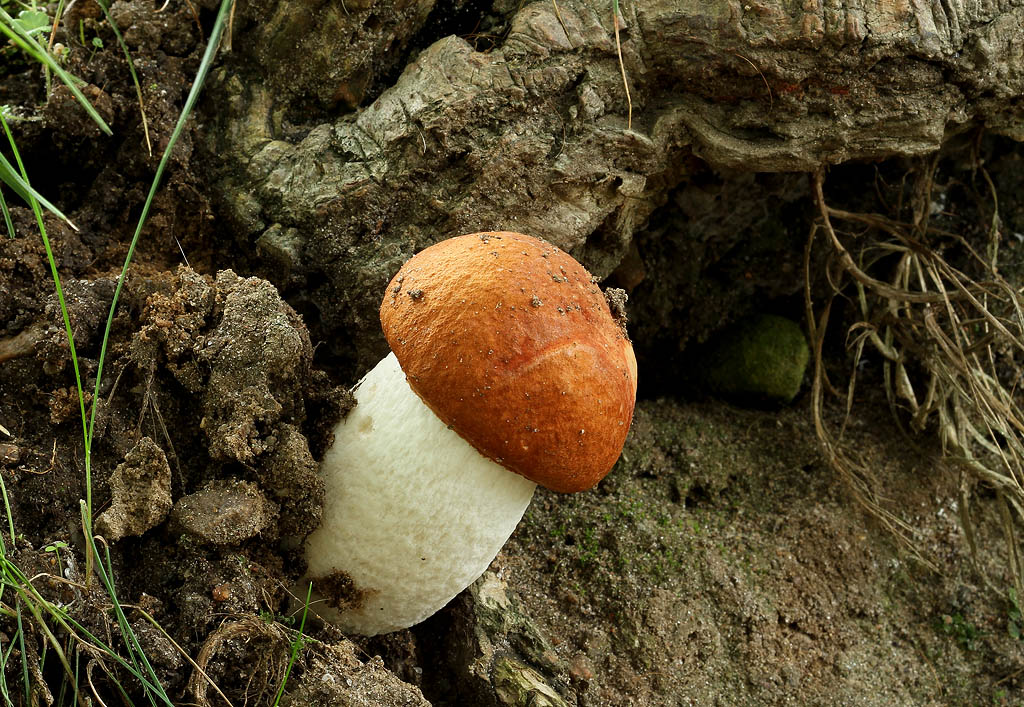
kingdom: Fungi
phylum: Basidiomycota
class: Agaricomycetes
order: Boletales
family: Boletaceae
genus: Leccinum
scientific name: Leccinum albostipitatum
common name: aspe-skælrørhat
